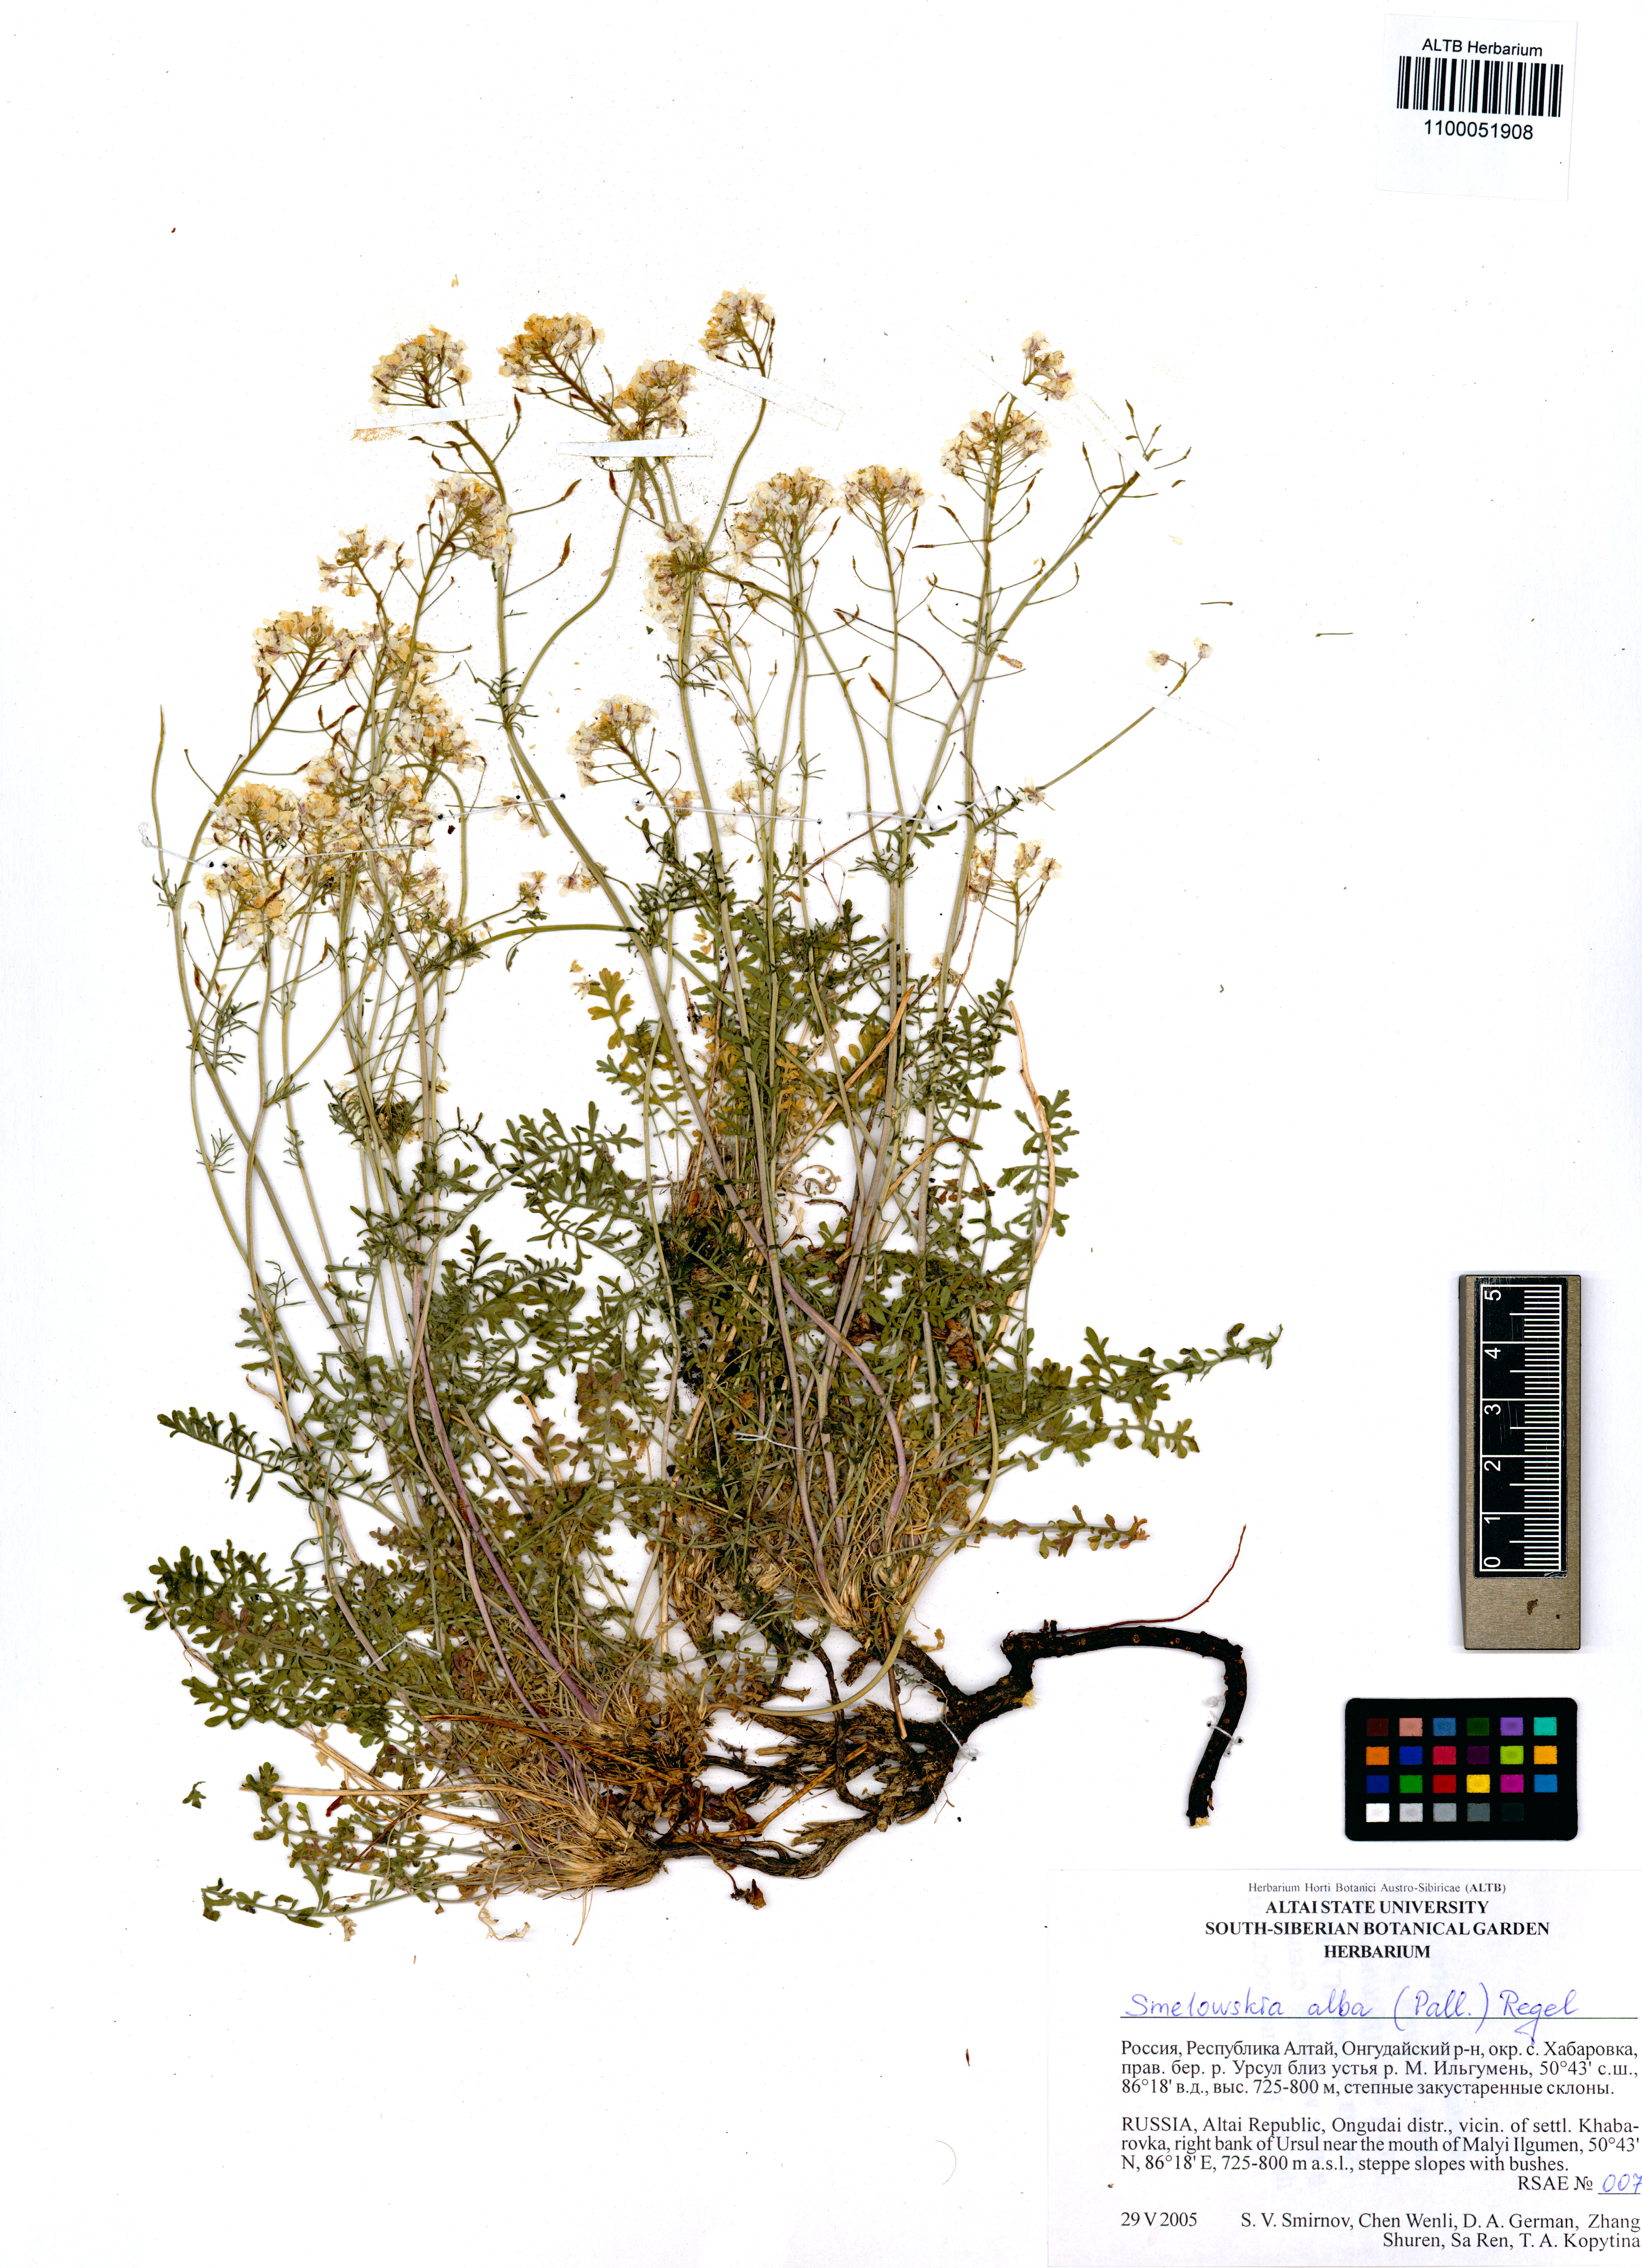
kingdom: Plantae
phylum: Tracheophyta
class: Magnoliopsida
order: Brassicales
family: Brassicaceae
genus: Smelowskia
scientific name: Smelowskia alba
